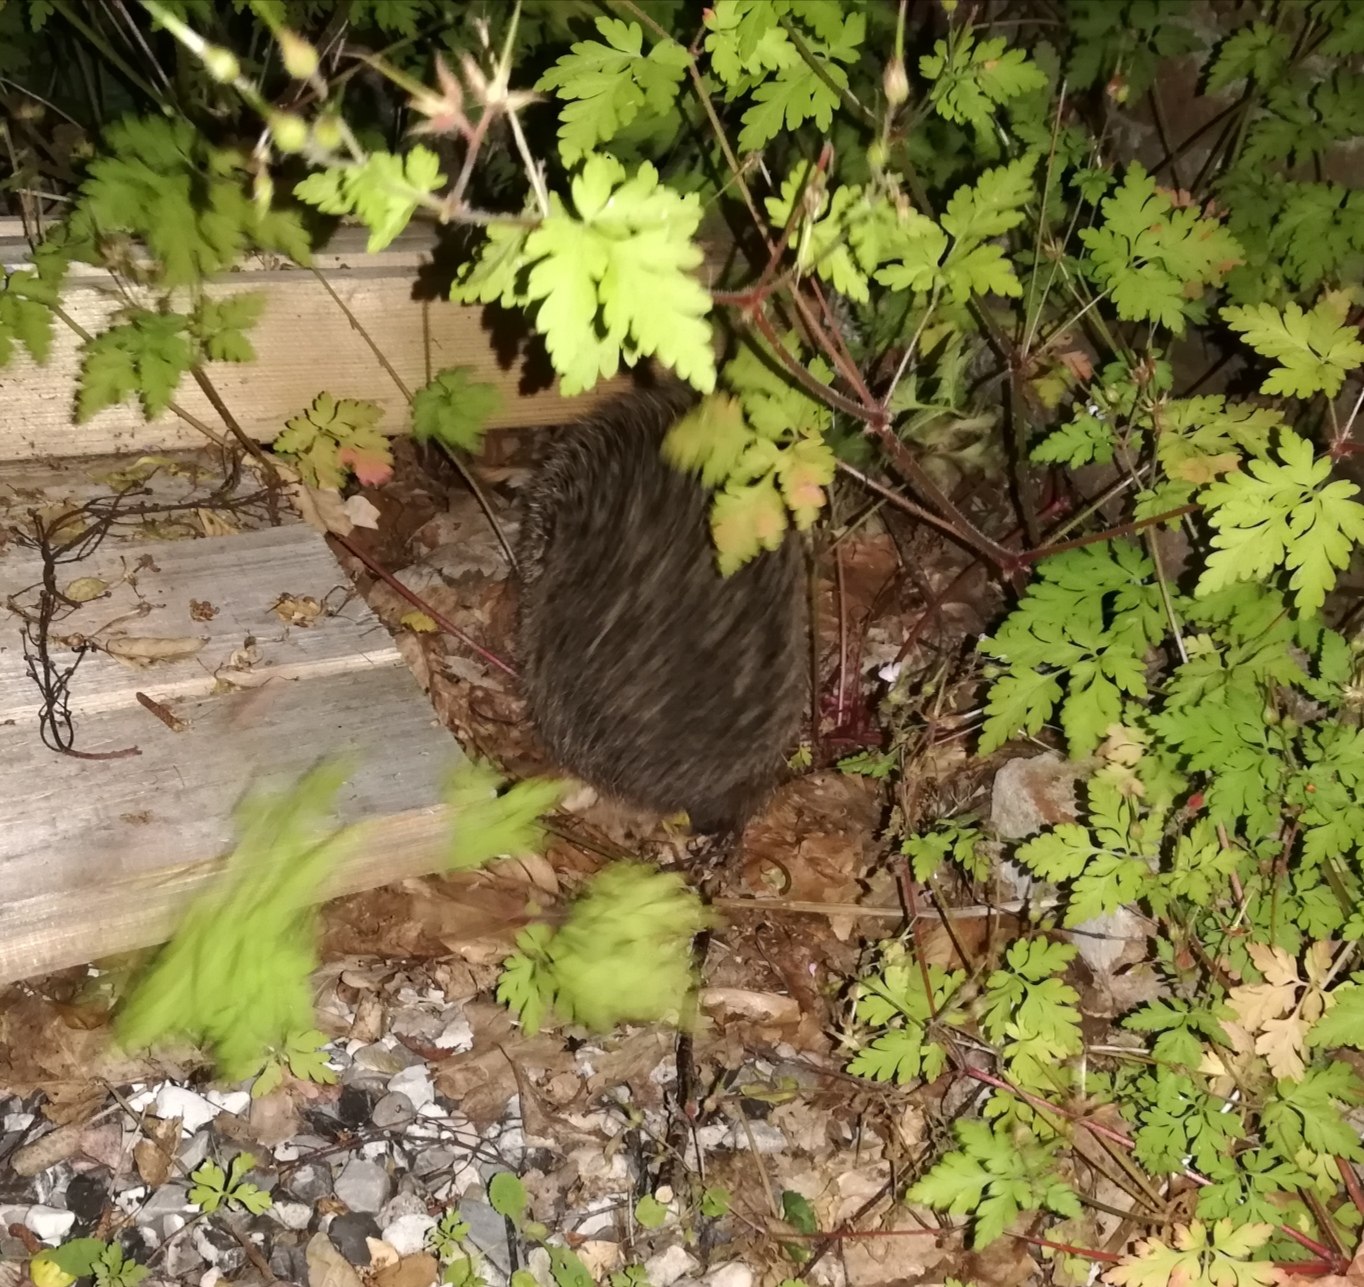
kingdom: Animalia
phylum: Chordata
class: Mammalia
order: Erinaceomorpha
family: Erinaceidae
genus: Erinaceus
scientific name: Erinaceus europaeus
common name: Pindsvin
